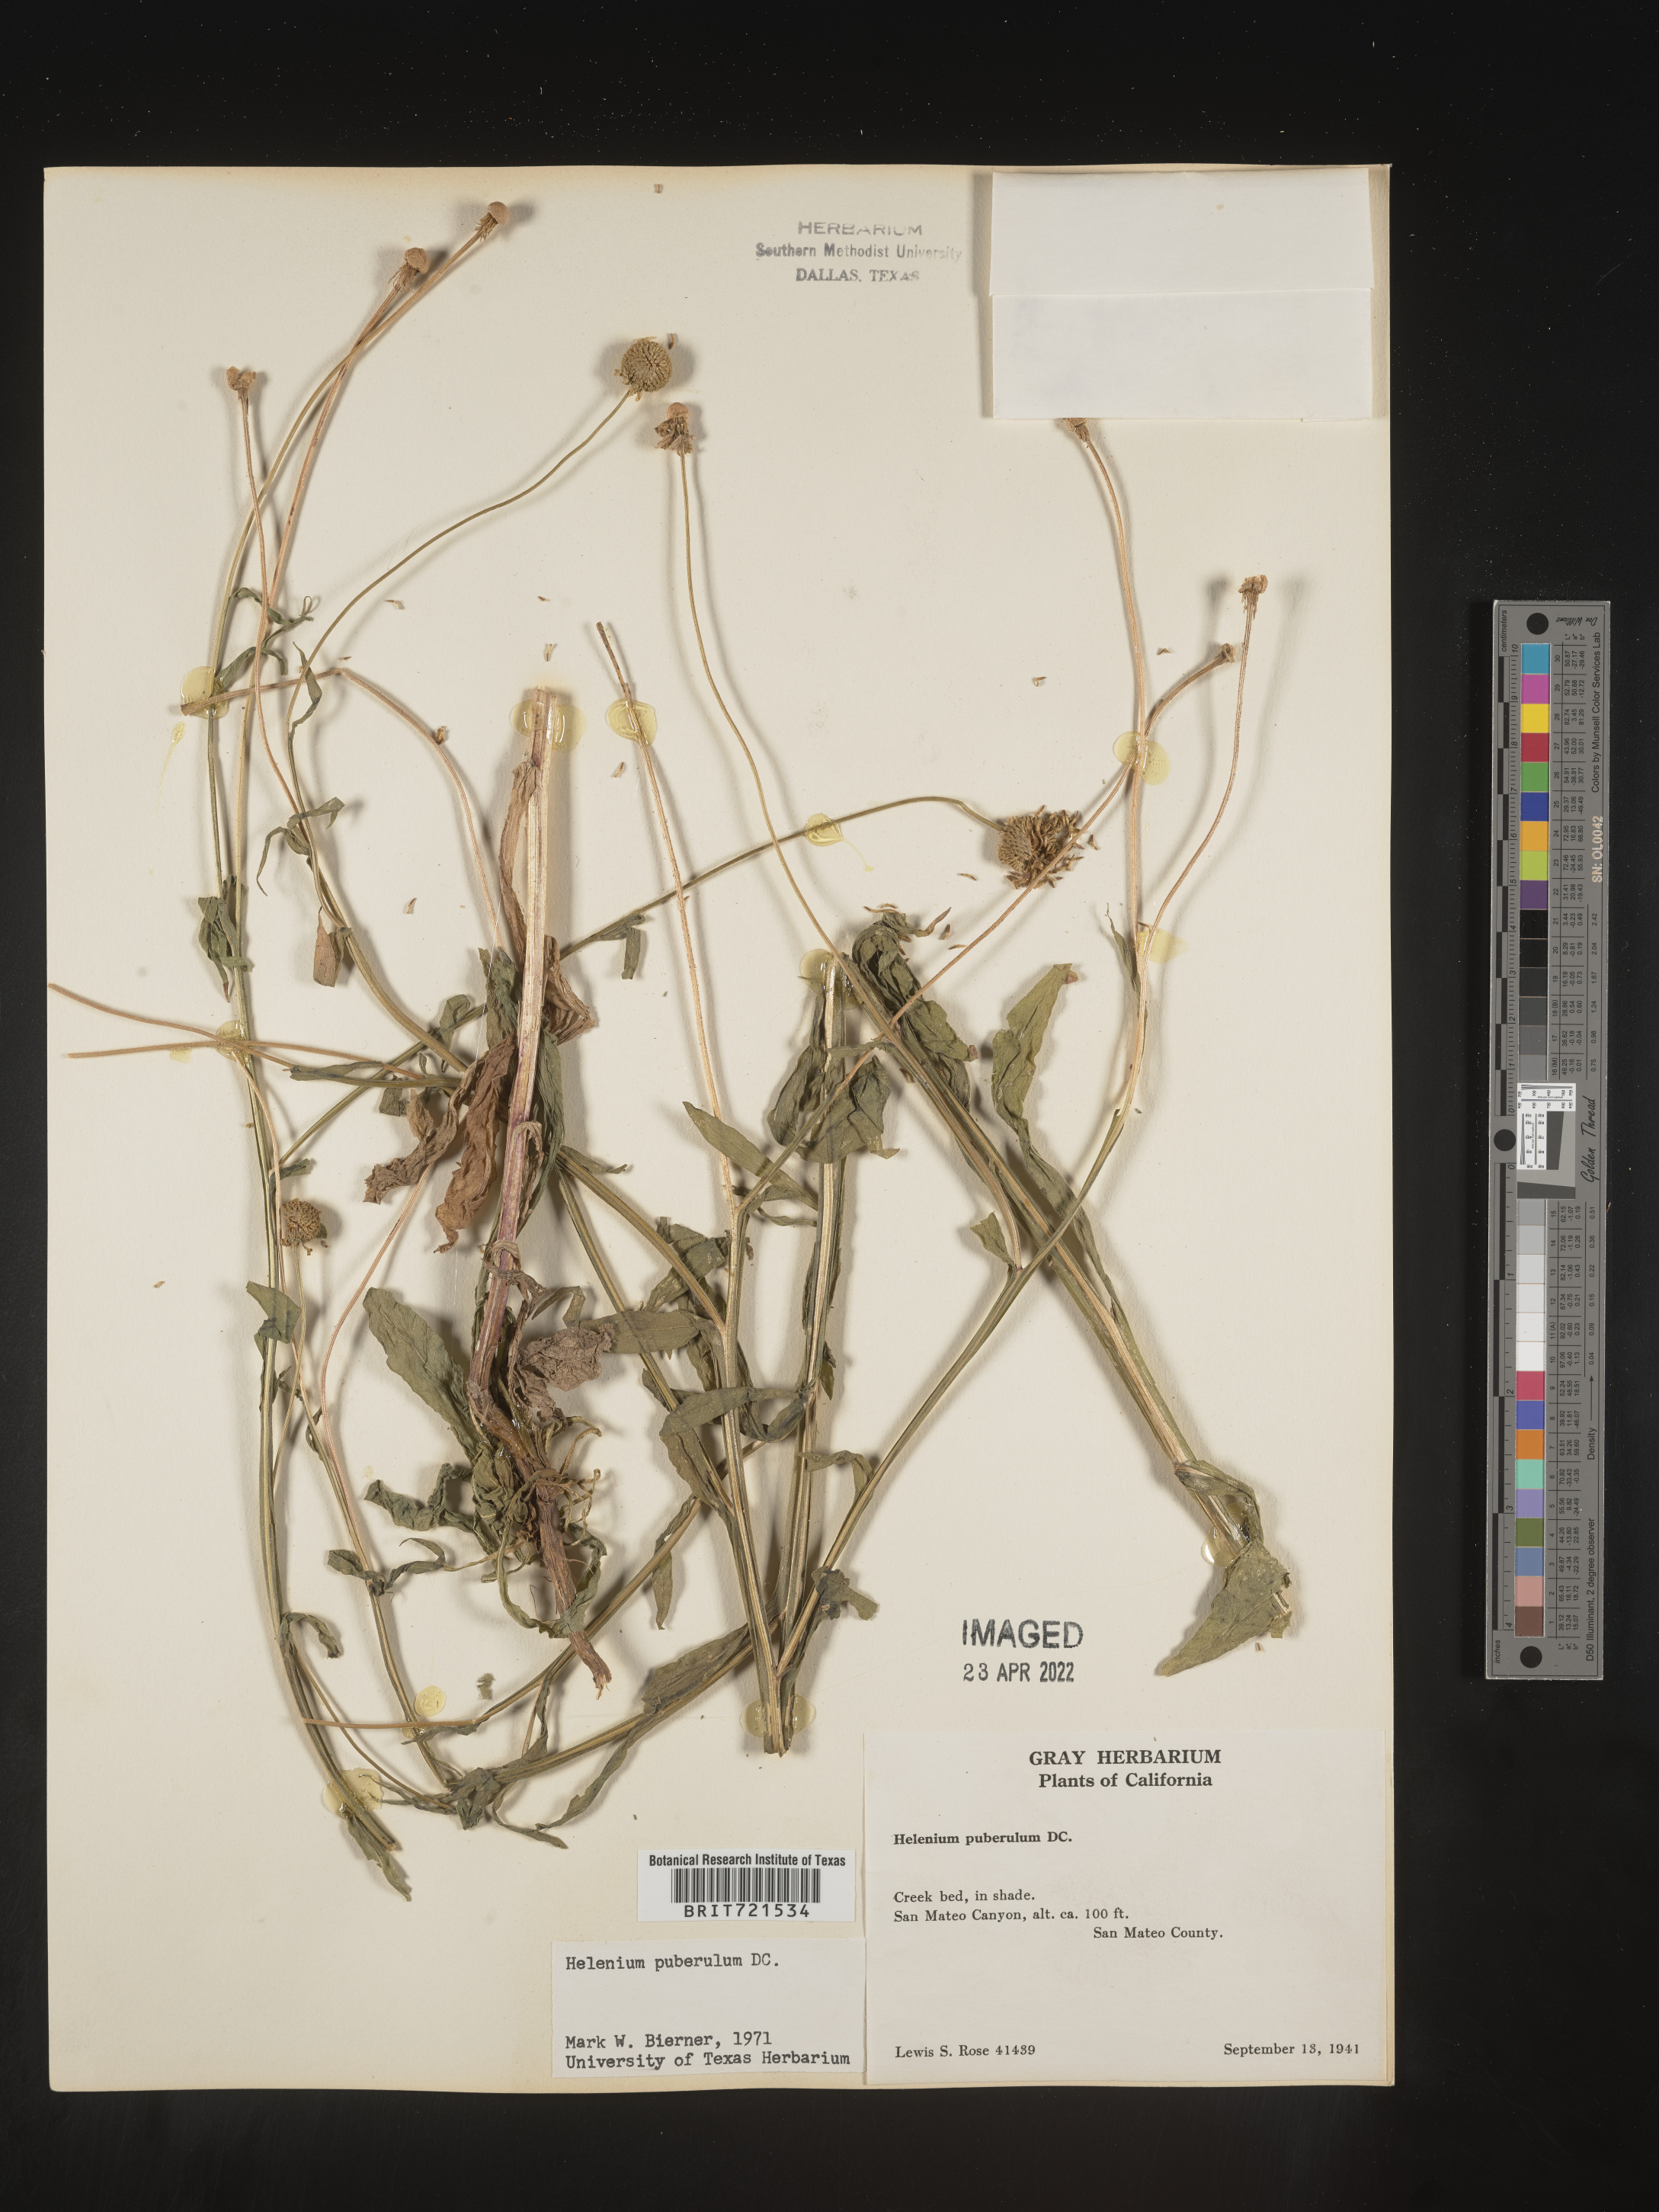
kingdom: Plantae
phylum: Tracheophyta
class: Magnoliopsida
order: Asterales
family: Asteraceae
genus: Helenium
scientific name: Helenium puberulum
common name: Sneezewort
